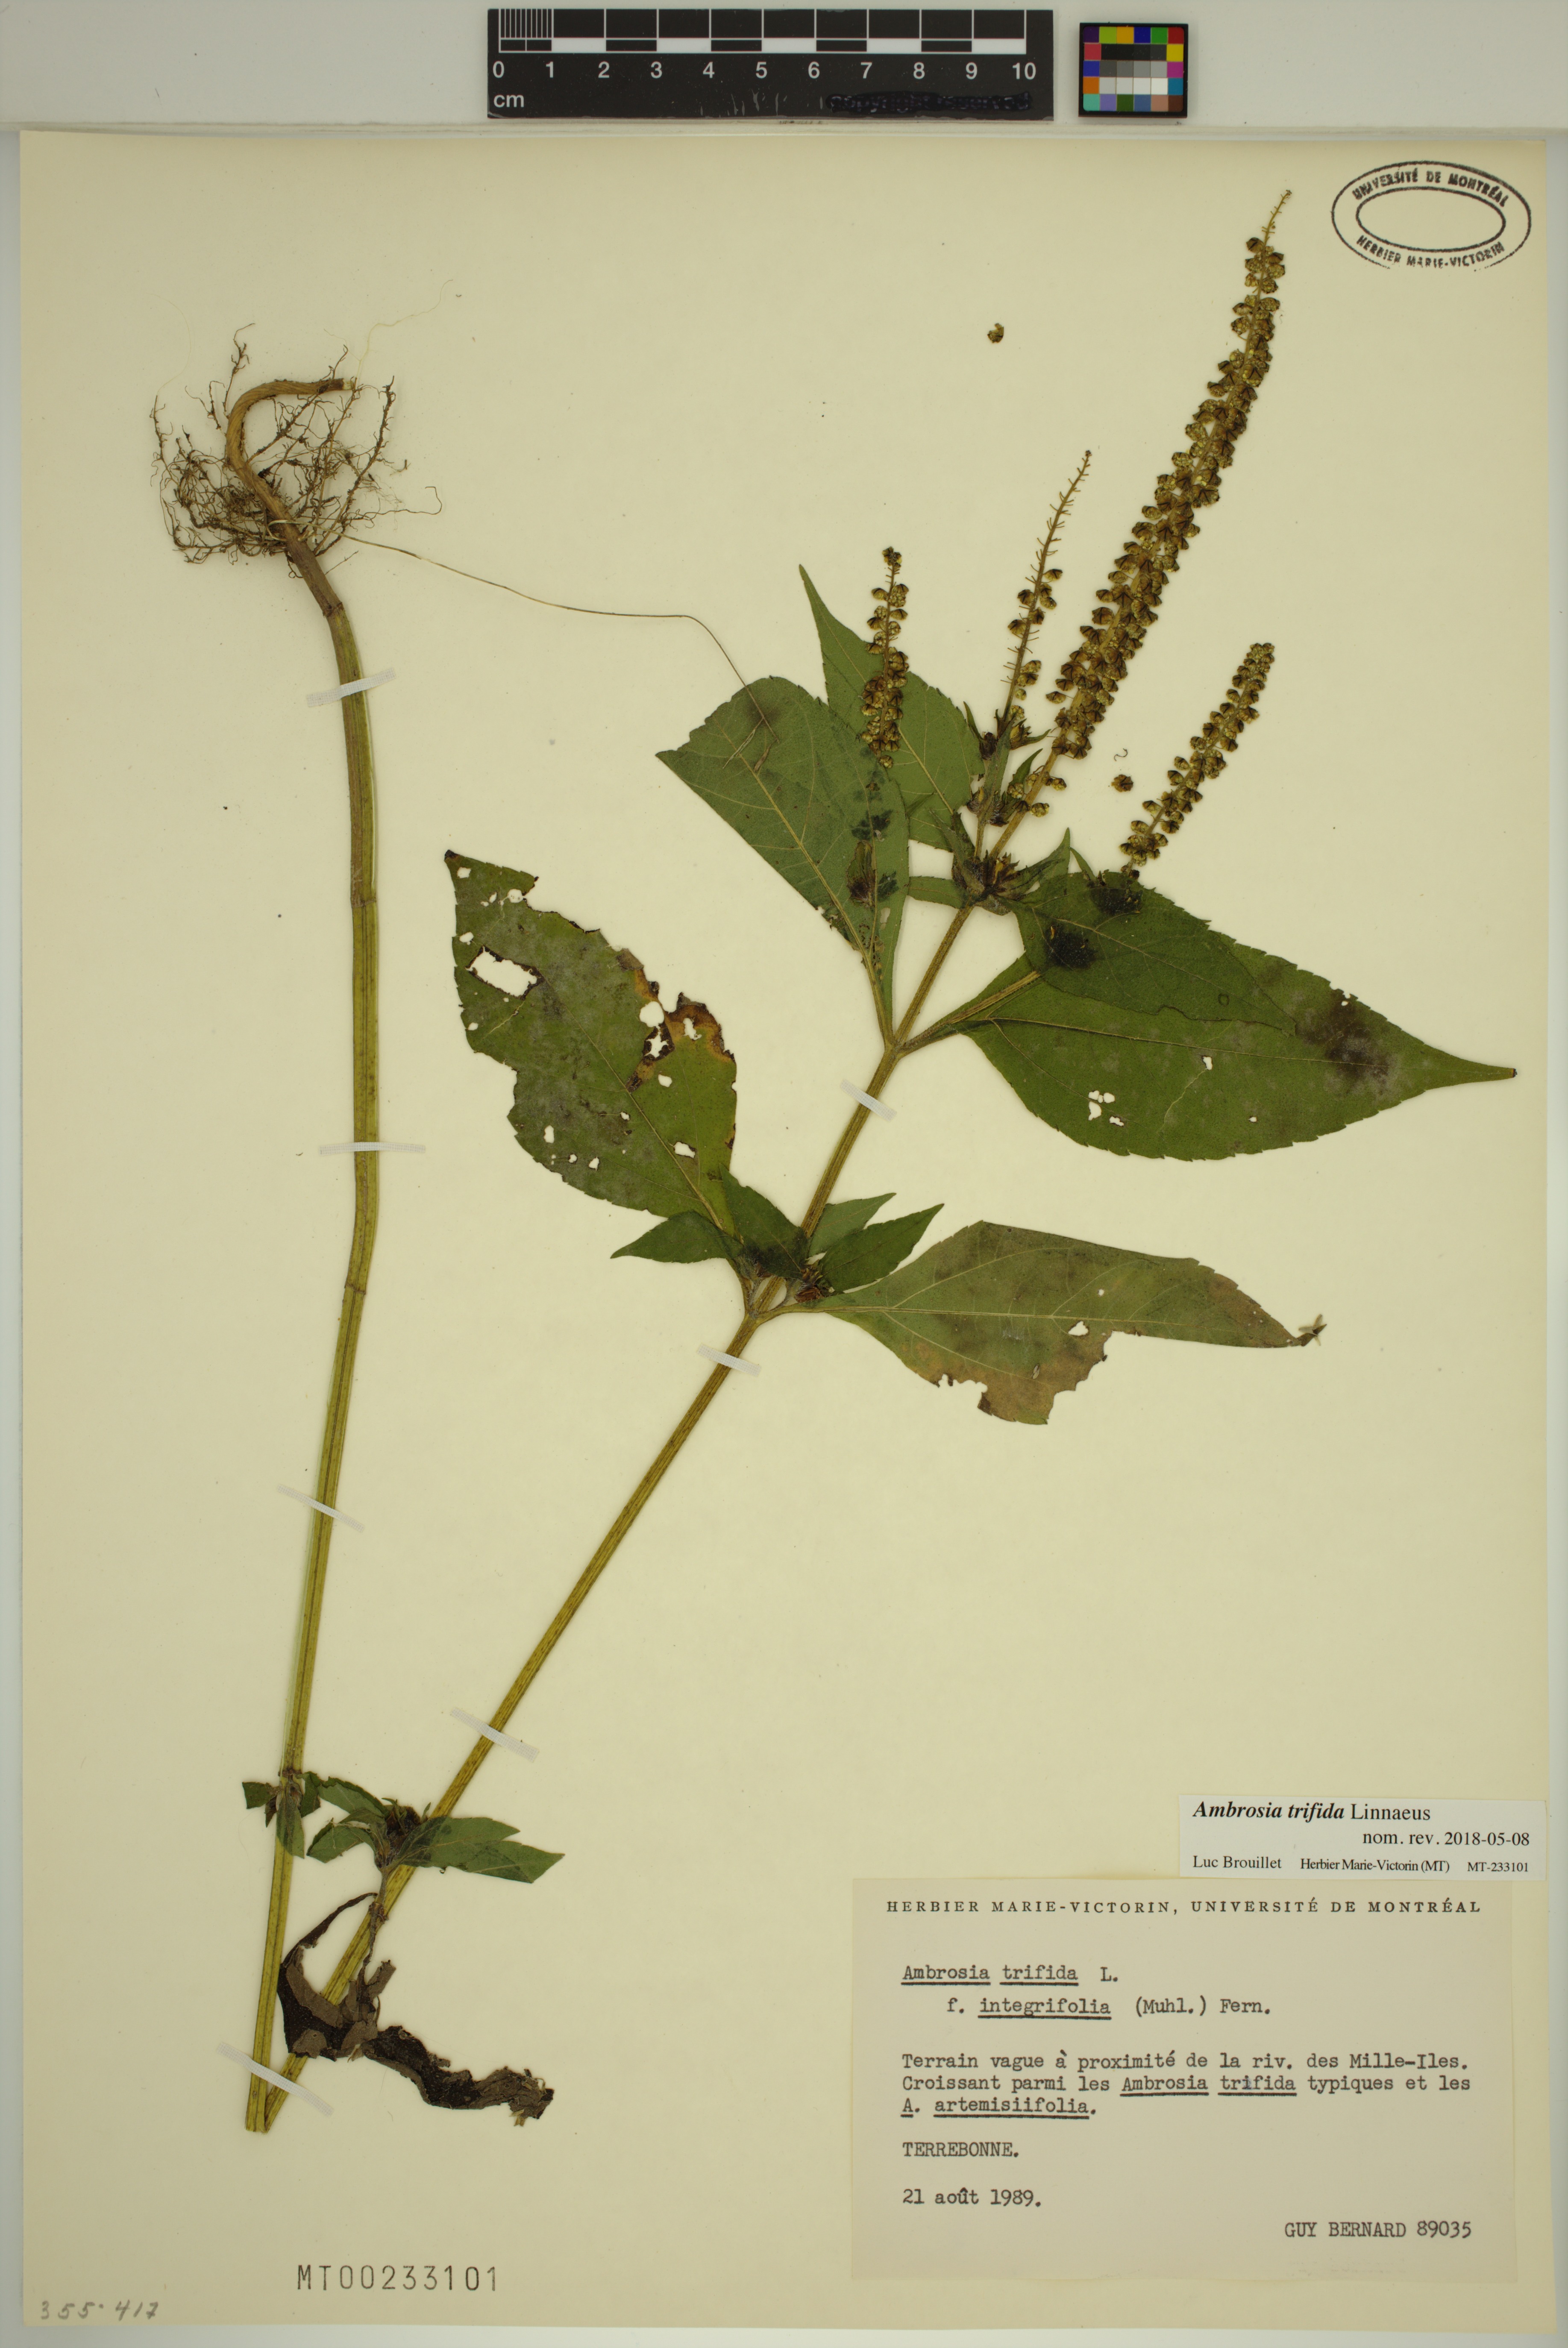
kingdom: Plantae
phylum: Tracheophyta
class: Magnoliopsida
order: Asterales
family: Asteraceae
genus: Ambrosia
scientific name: Ambrosia trifida
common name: Giant ragweed
